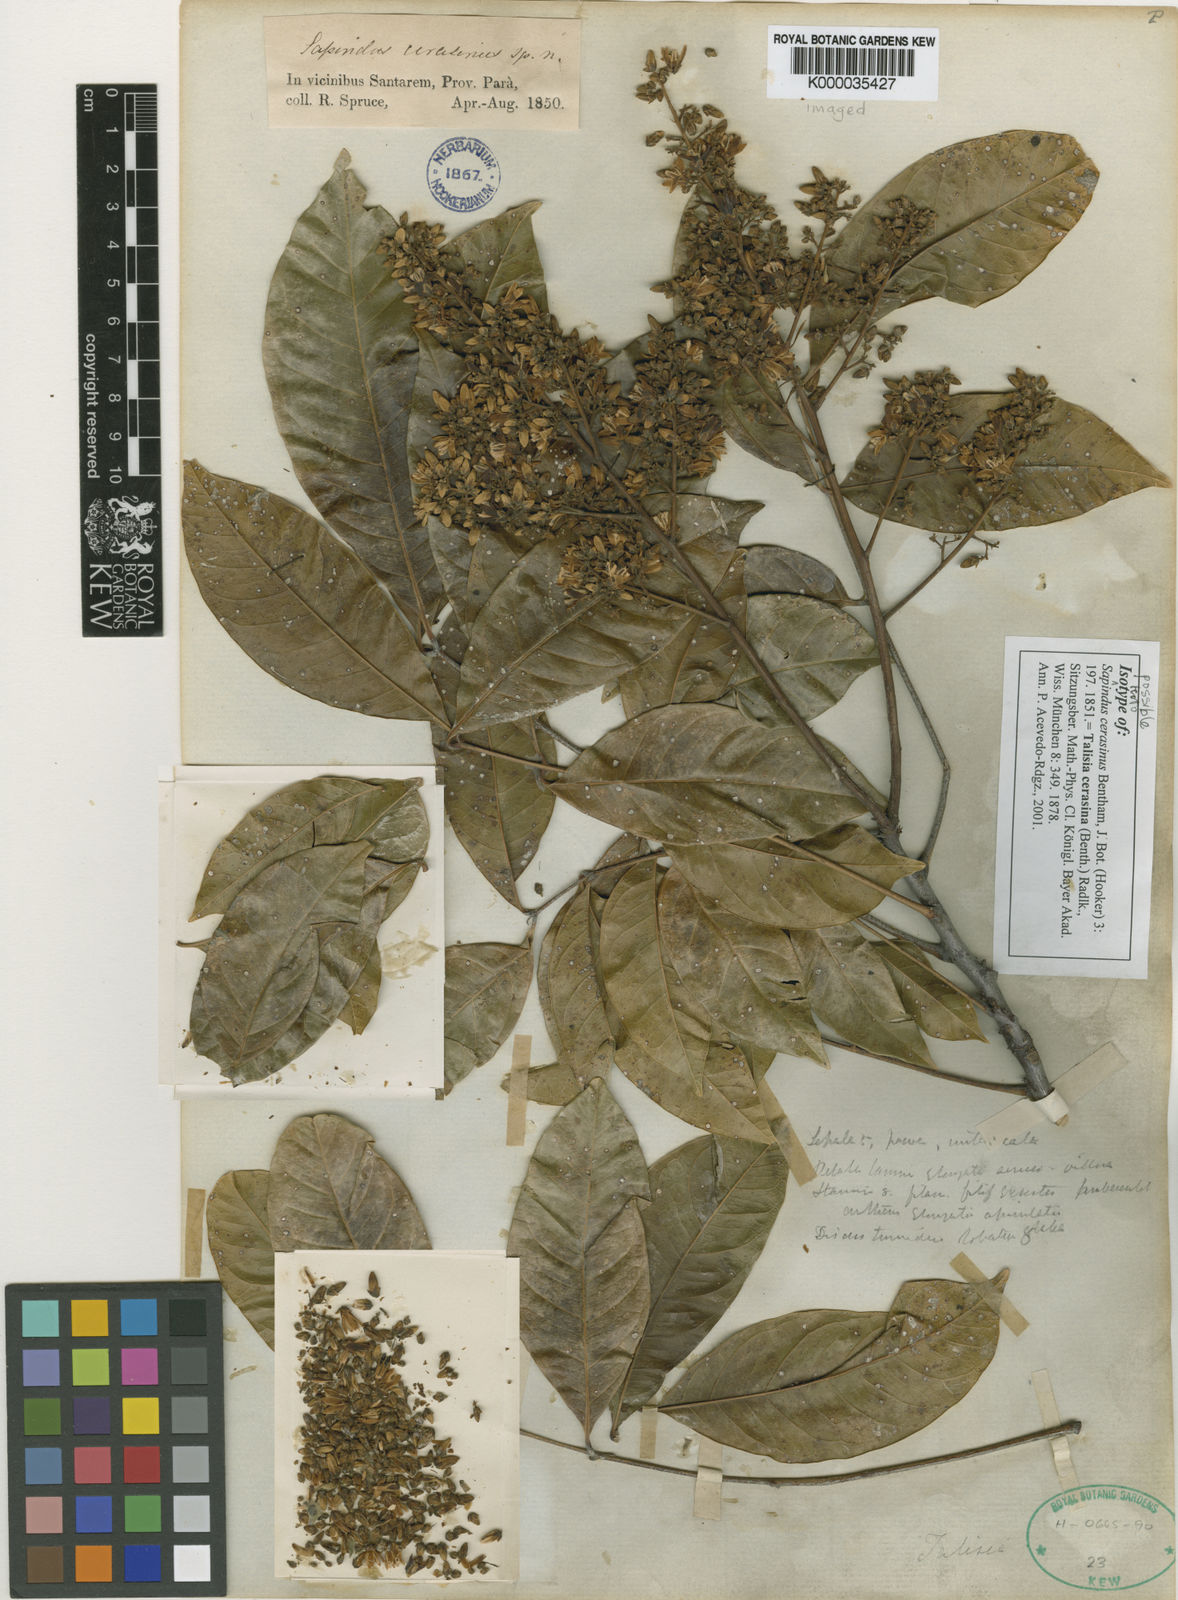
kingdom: Plantae
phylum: Tracheophyta
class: Magnoliopsida
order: Sapindales
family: Sapindaceae
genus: Talisia
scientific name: Talisia cerasina
